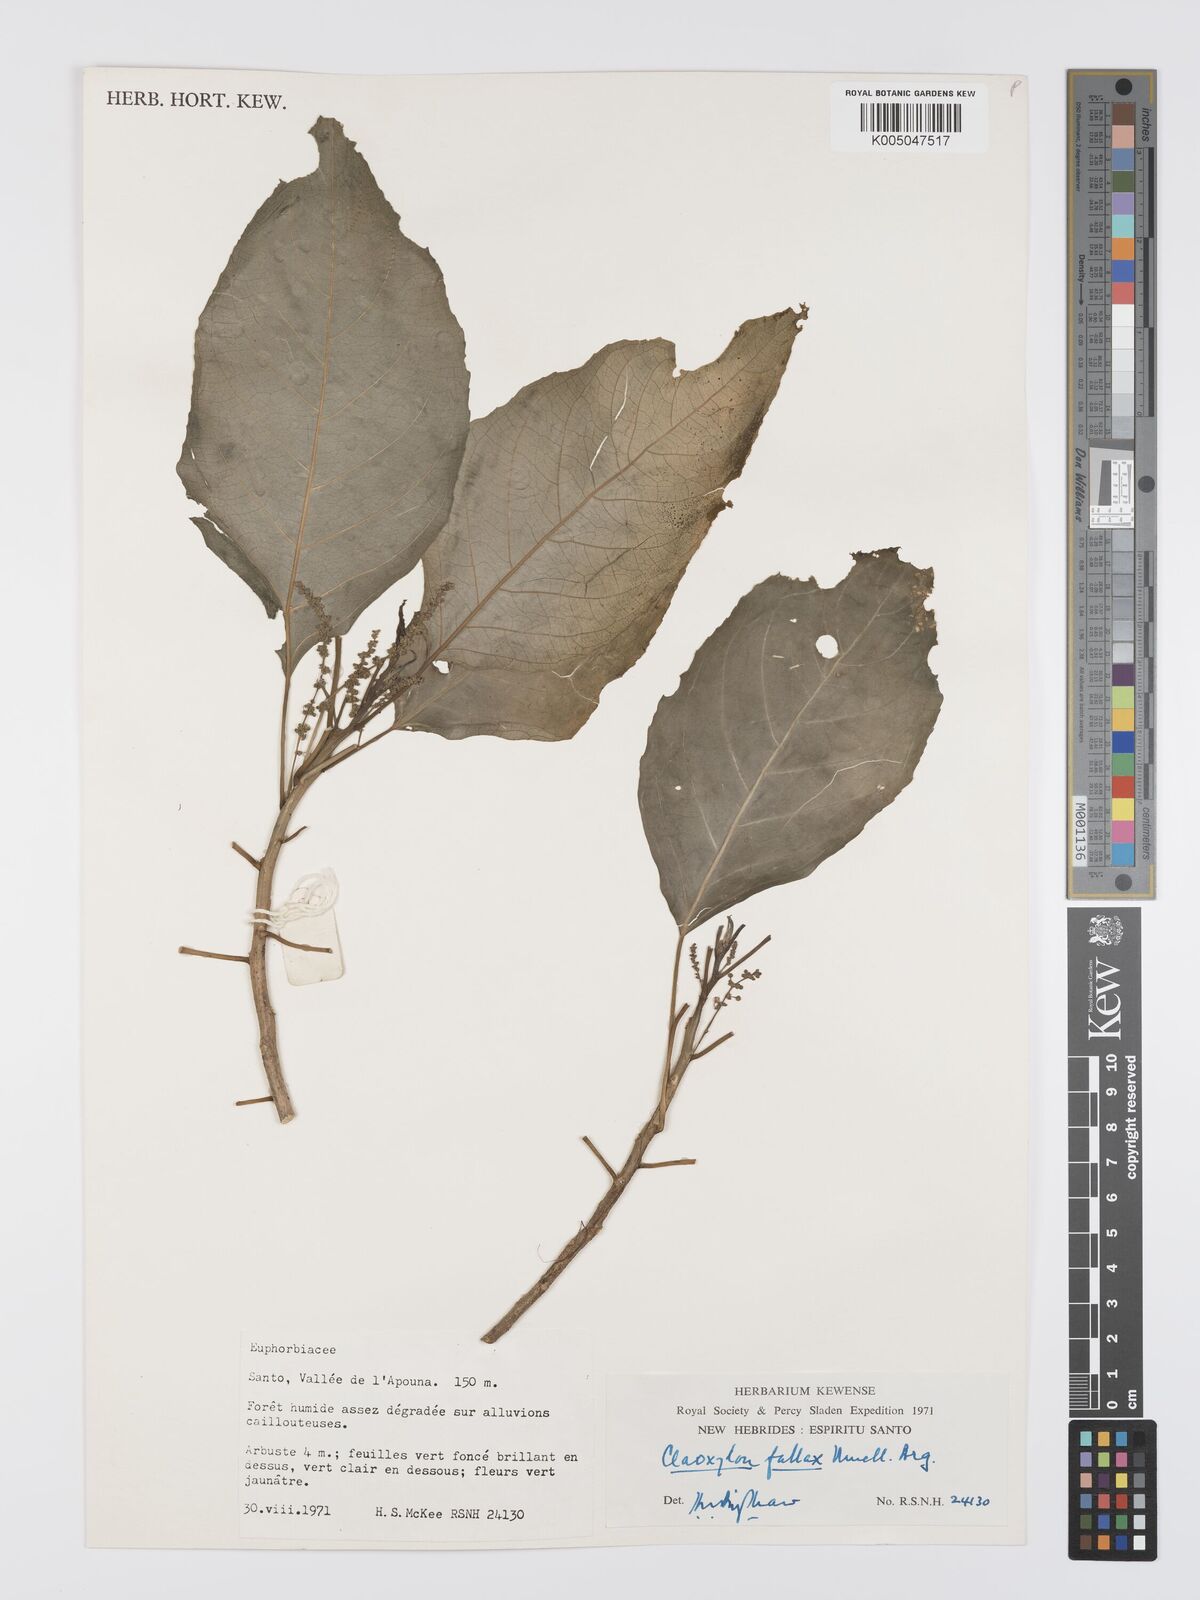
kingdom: Plantae
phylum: Tracheophyta
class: Magnoliopsida
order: Malpighiales
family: Euphorbiaceae
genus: Claoxylon
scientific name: Claoxylon fallax
